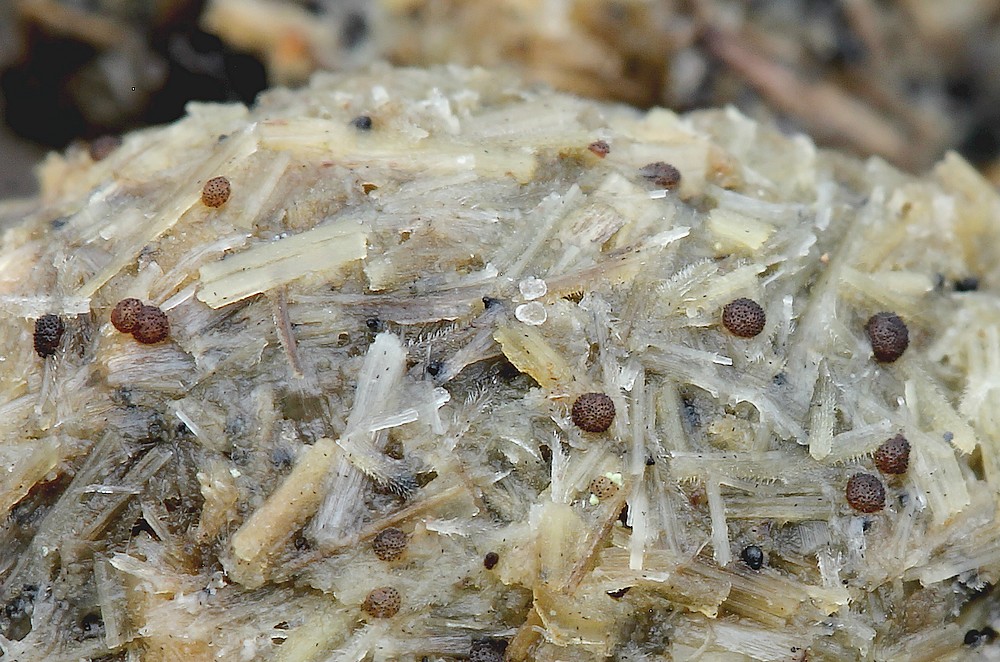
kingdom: Fungi
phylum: Ascomycota
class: Pezizomycetes
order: Pezizales
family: Ascobolaceae
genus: Saccobolus
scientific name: Saccobolus versicolor
